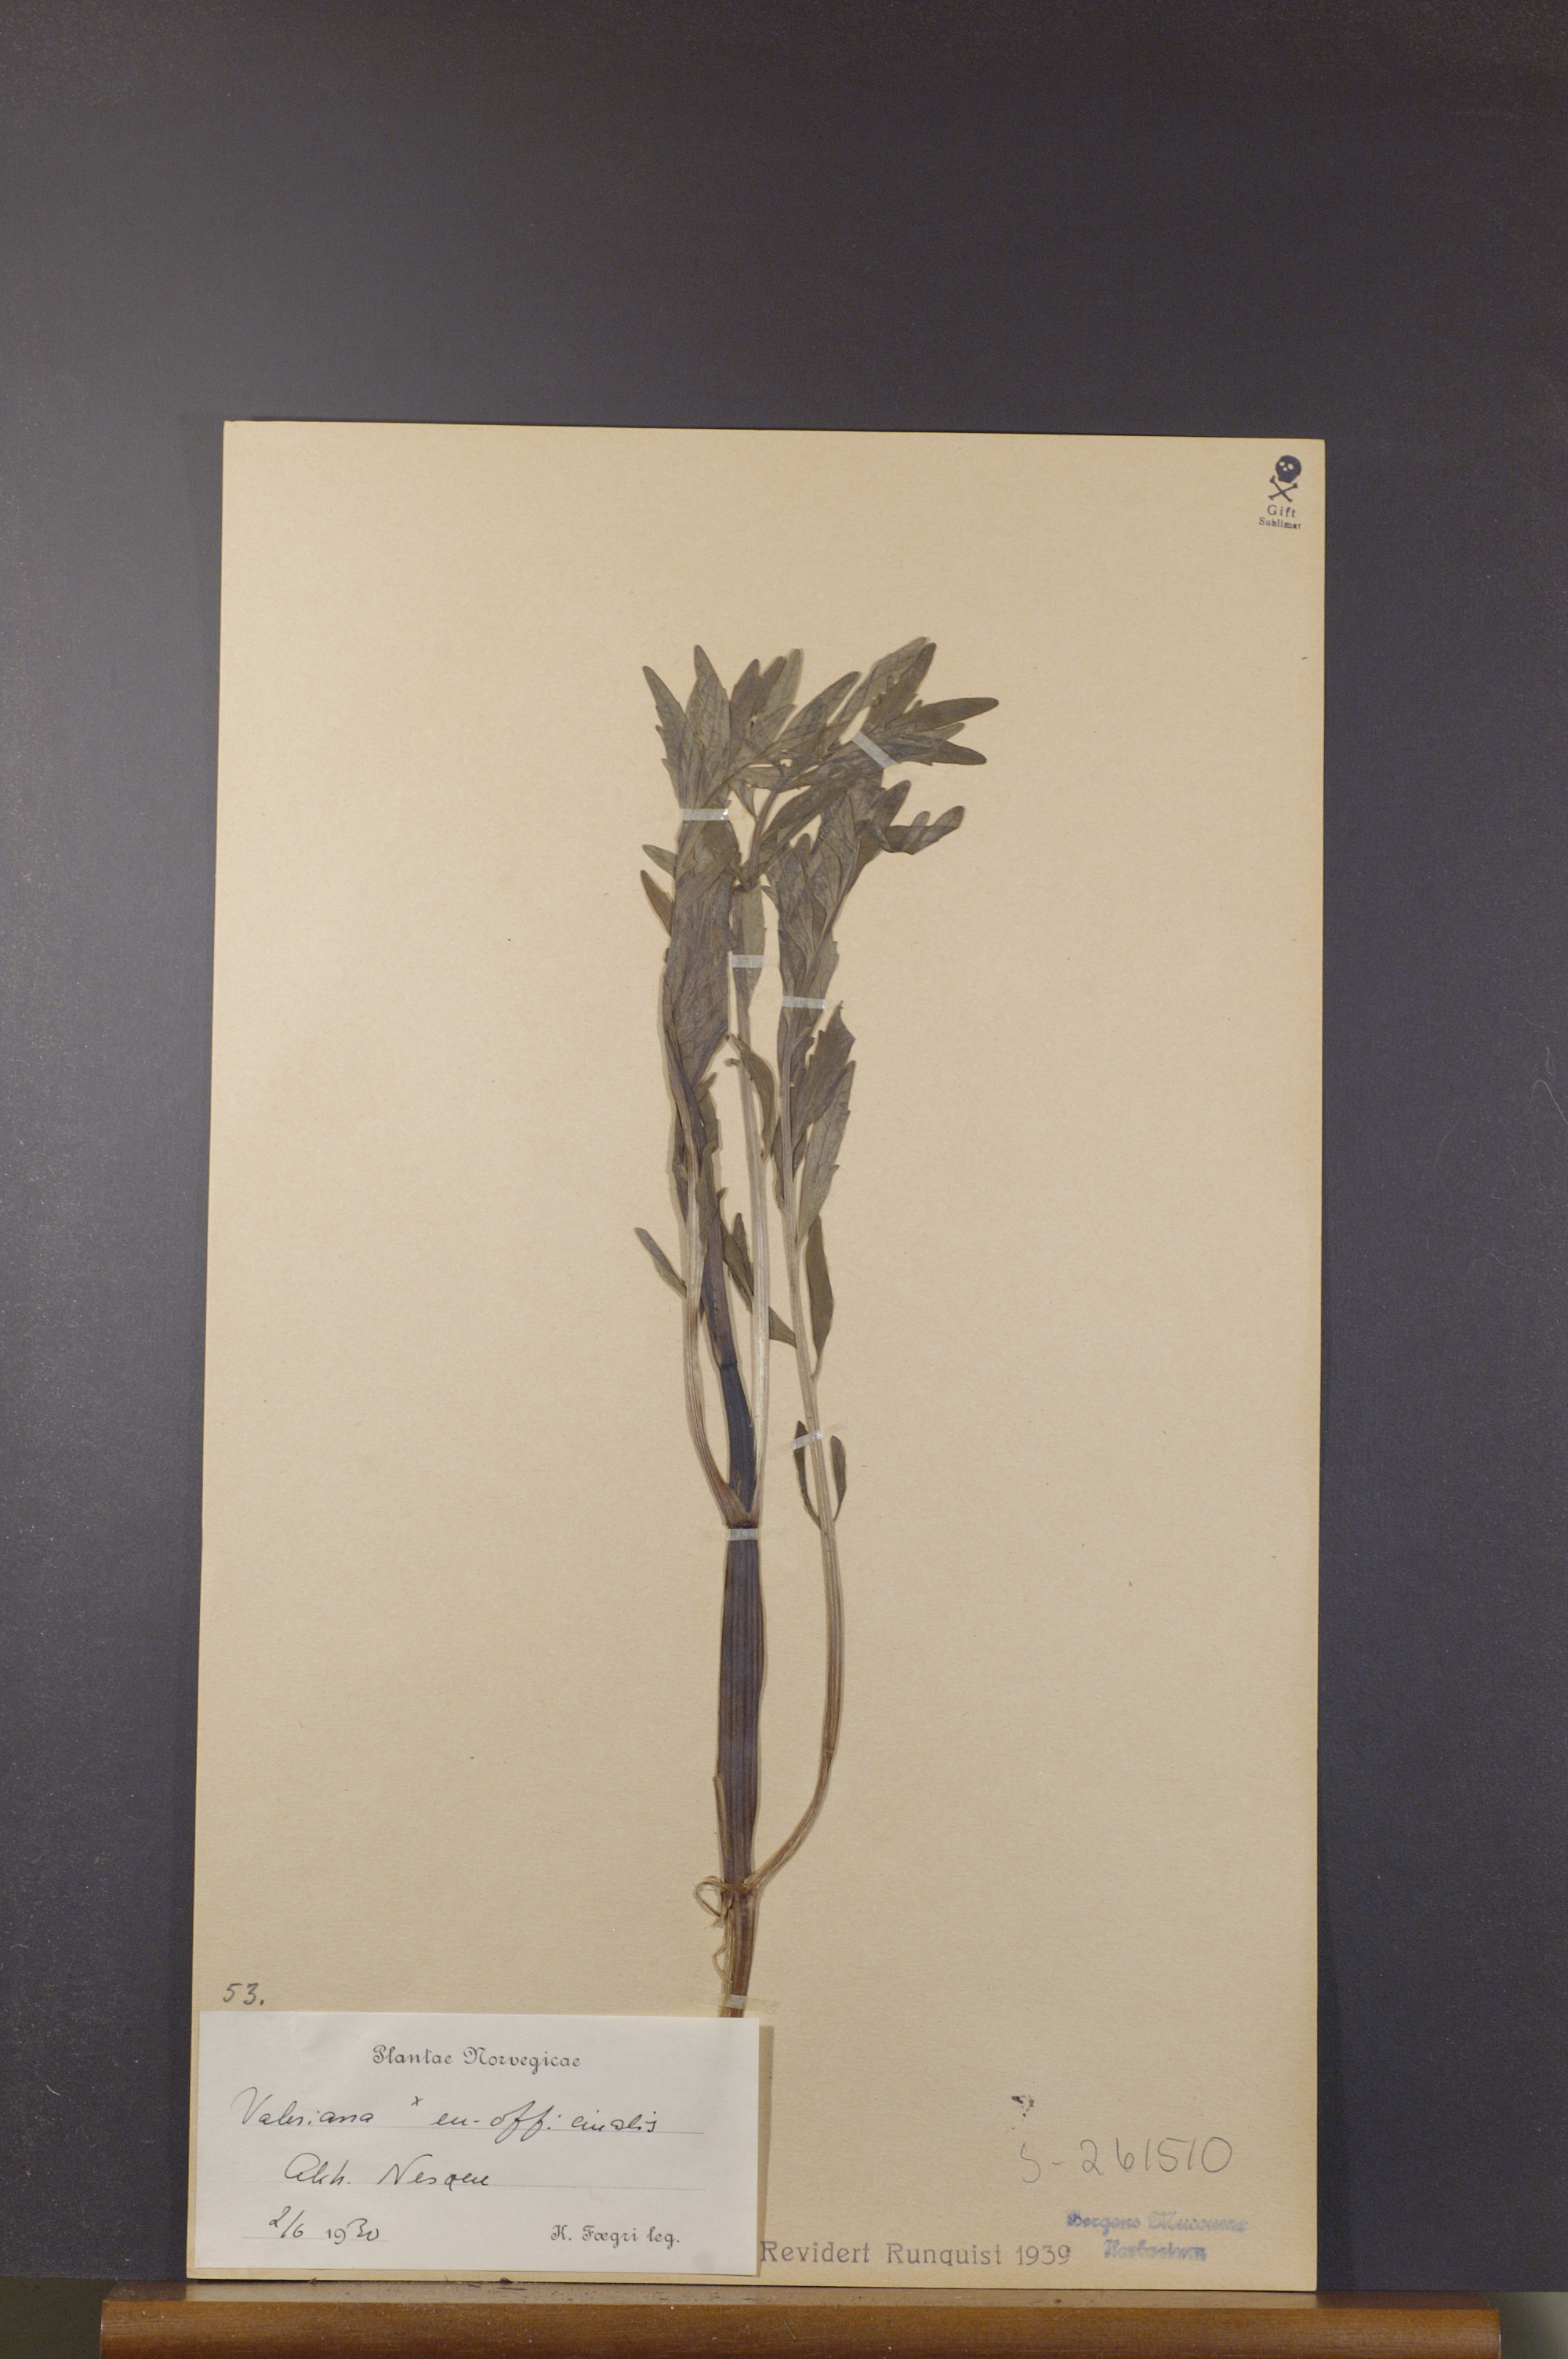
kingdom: Plantae
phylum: Tracheophyta
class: Magnoliopsida
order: Dipsacales
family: Caprifoliaceae
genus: Valeriana
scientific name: Valeriana officinalis
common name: Common valerian
